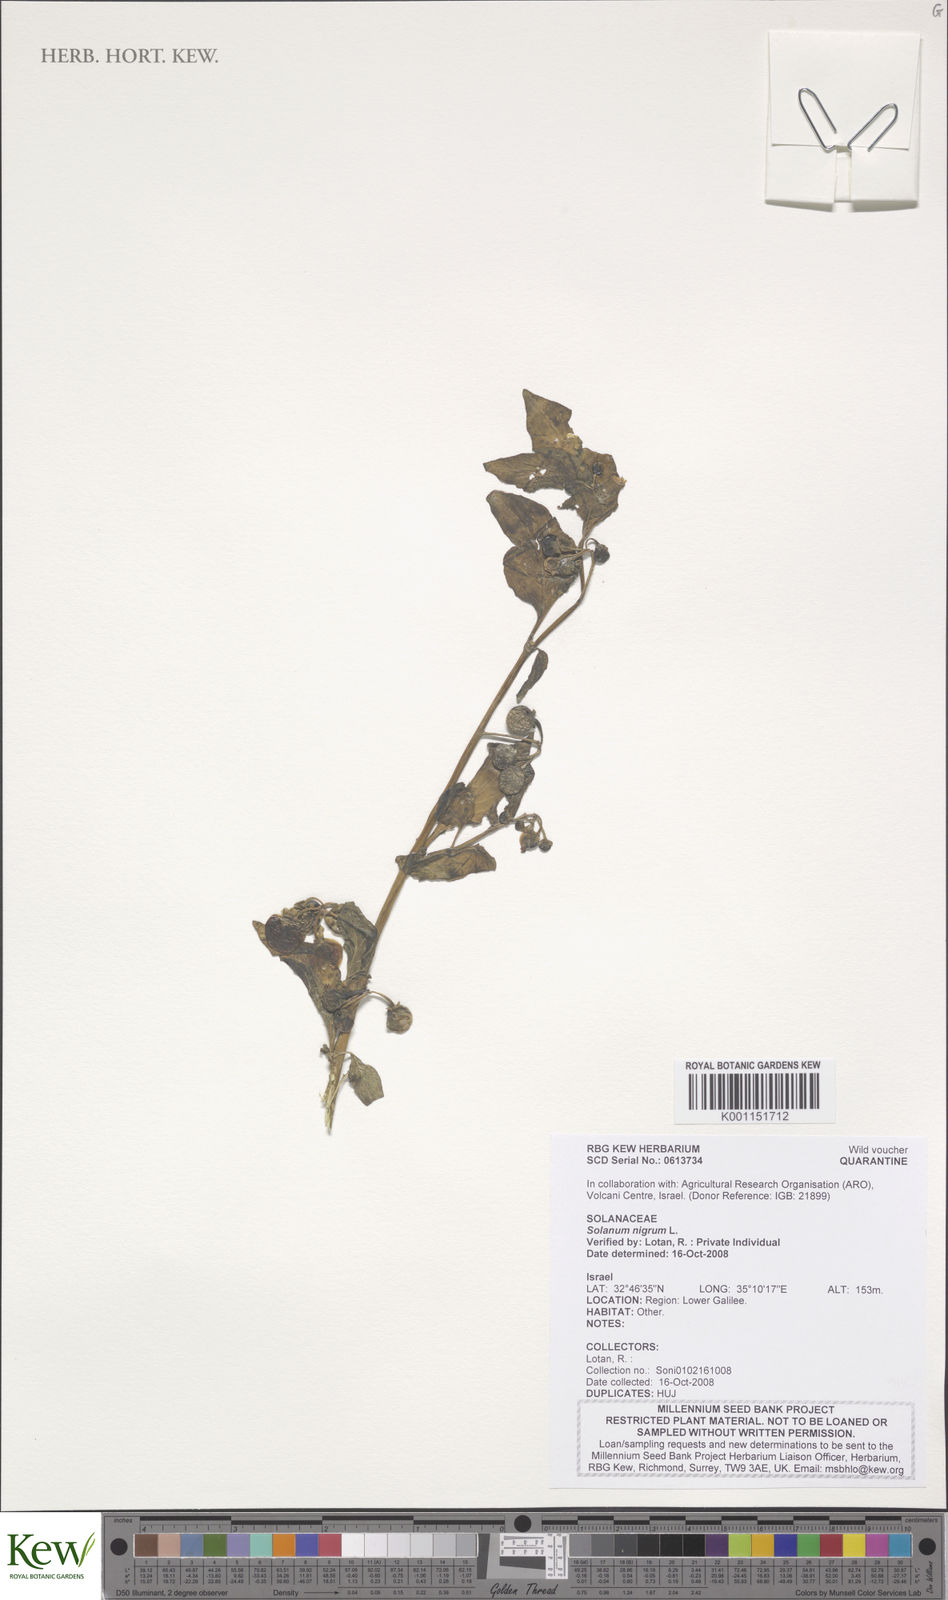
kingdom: Plantae
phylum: Tracheophyta
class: Magnoliopsida
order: Solanales
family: Solanaceae
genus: Solanum
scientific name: Solanum
